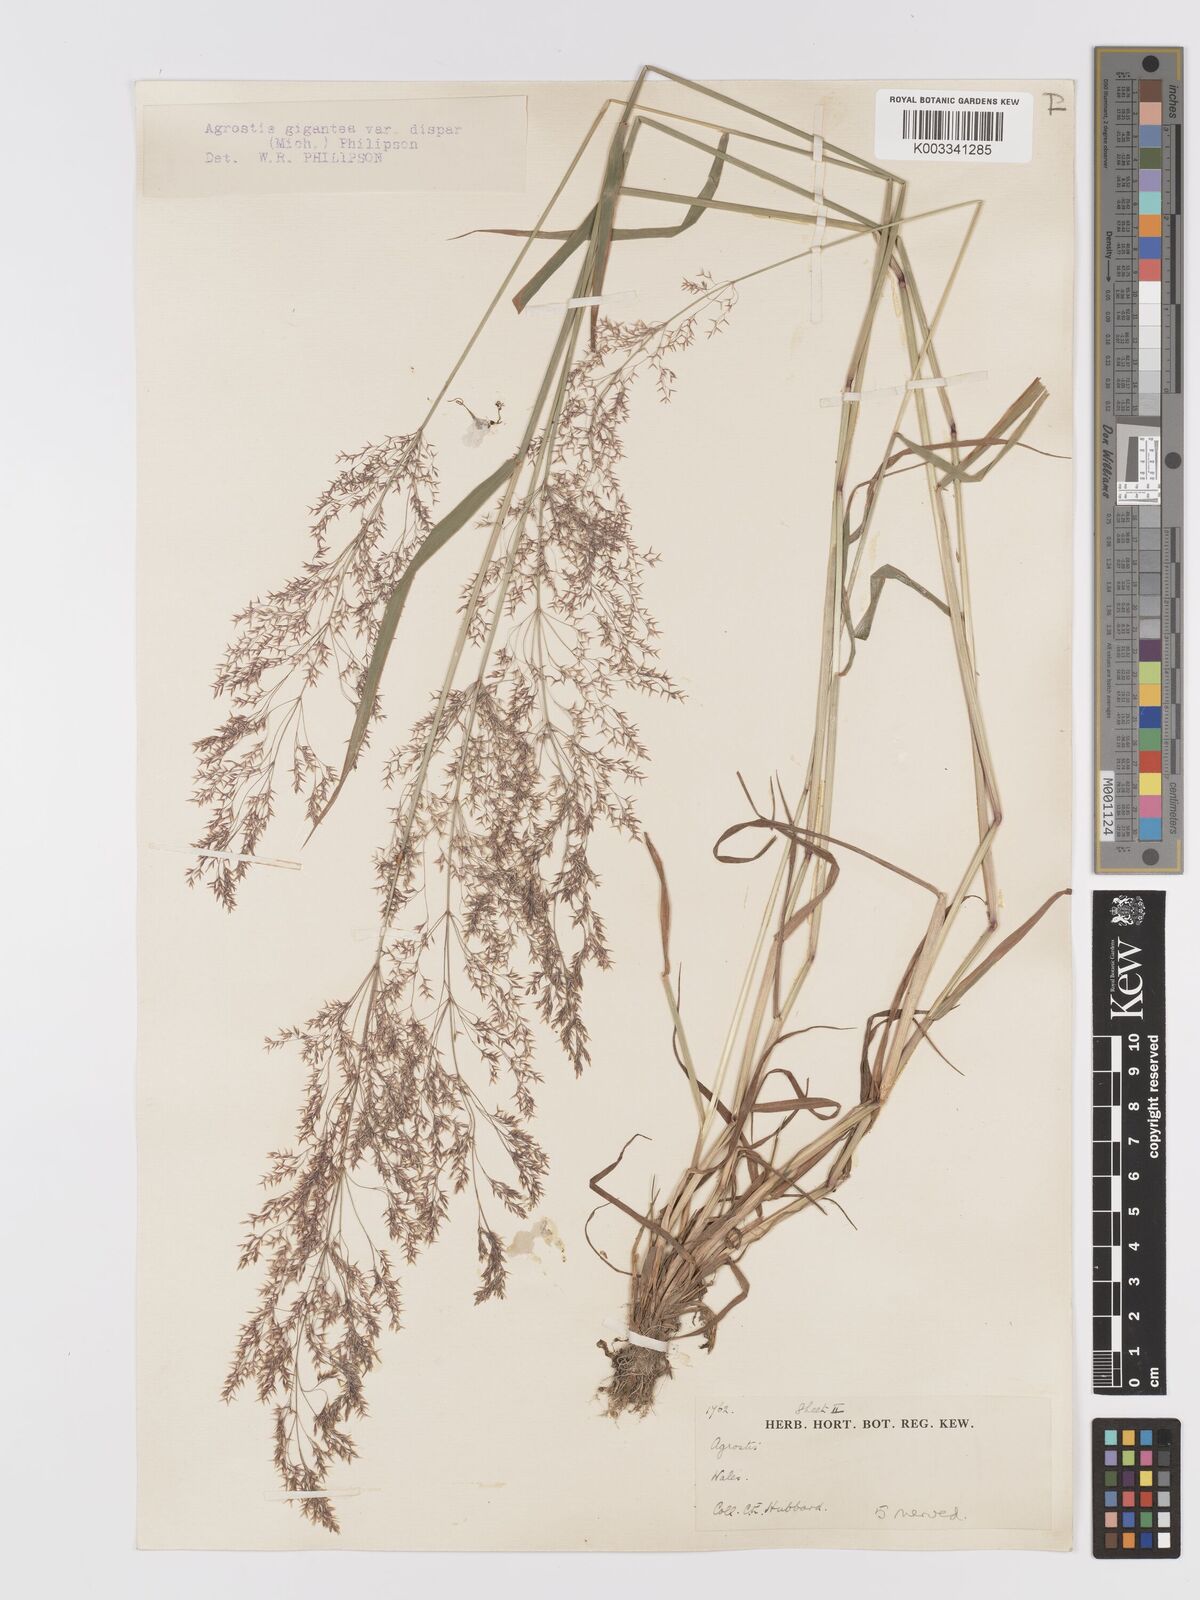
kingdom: Plantae
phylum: Tracheophyta
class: Liliopsida
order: Poales
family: Poaceae
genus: Agrostis
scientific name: Agrostis gigantea
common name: Black bent
